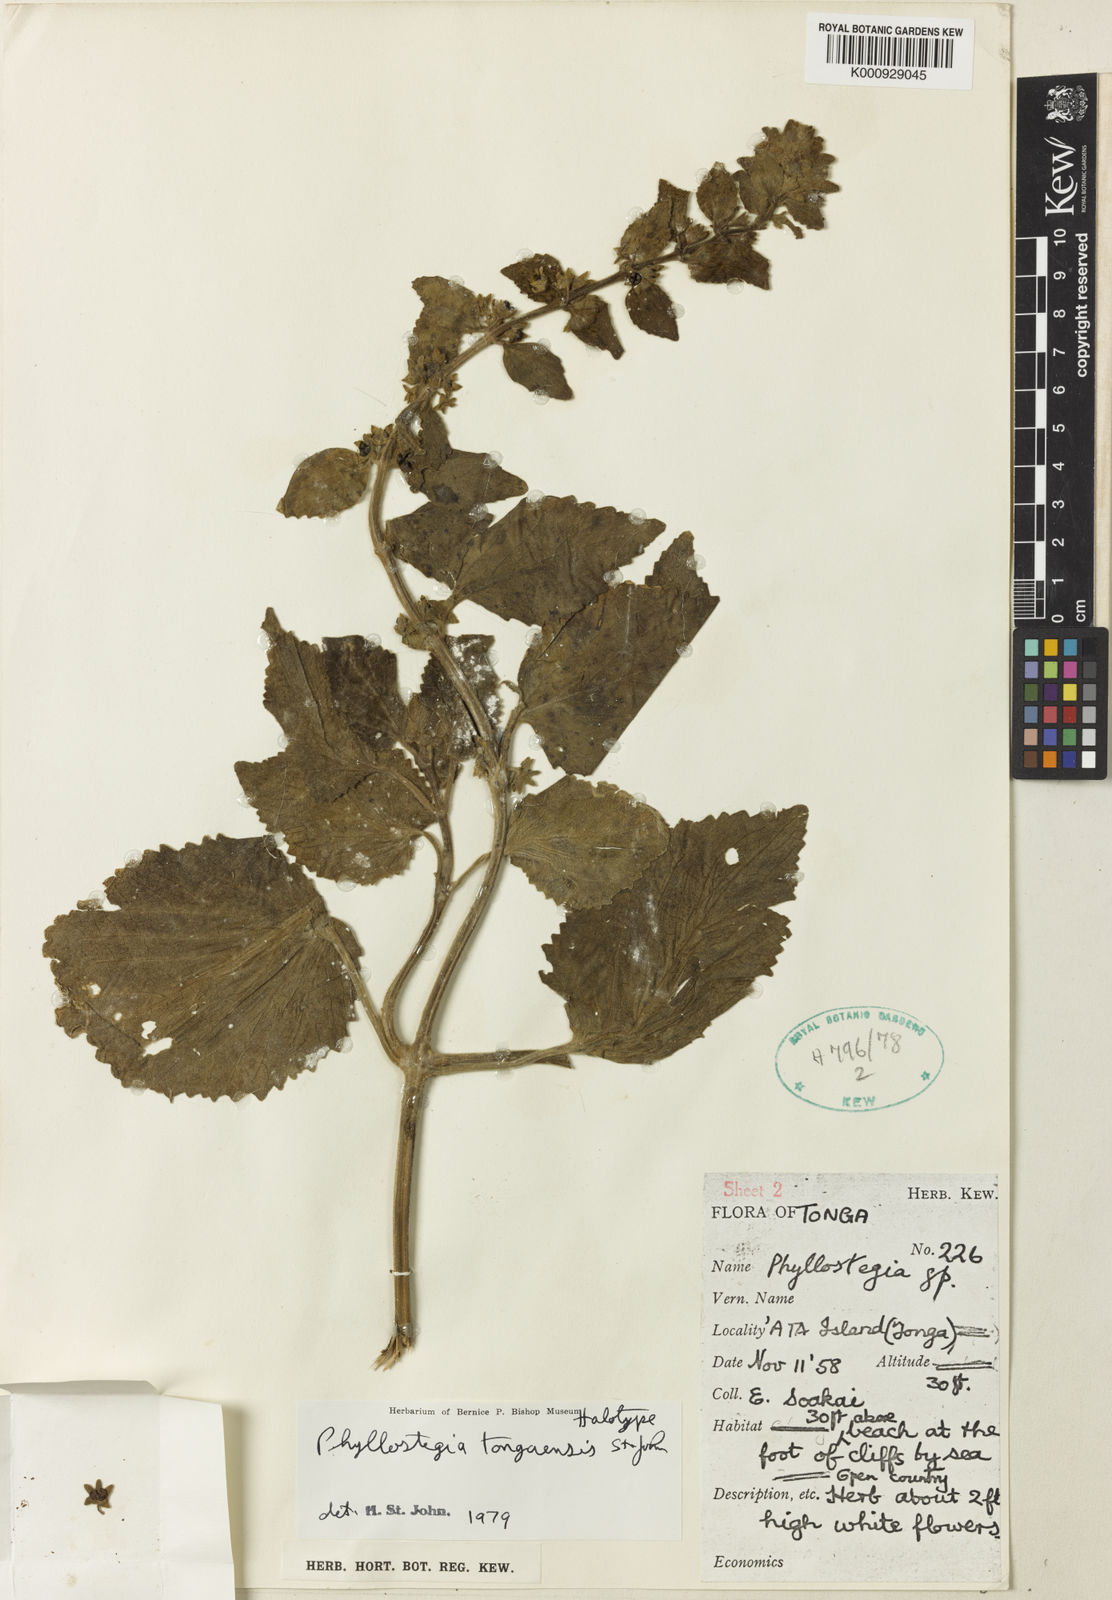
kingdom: Plantae
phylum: Tracheophyta
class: Magnoliopsida
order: Lamiales
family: Lamiaceae
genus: Phyllostegia
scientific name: Phyllostegia
